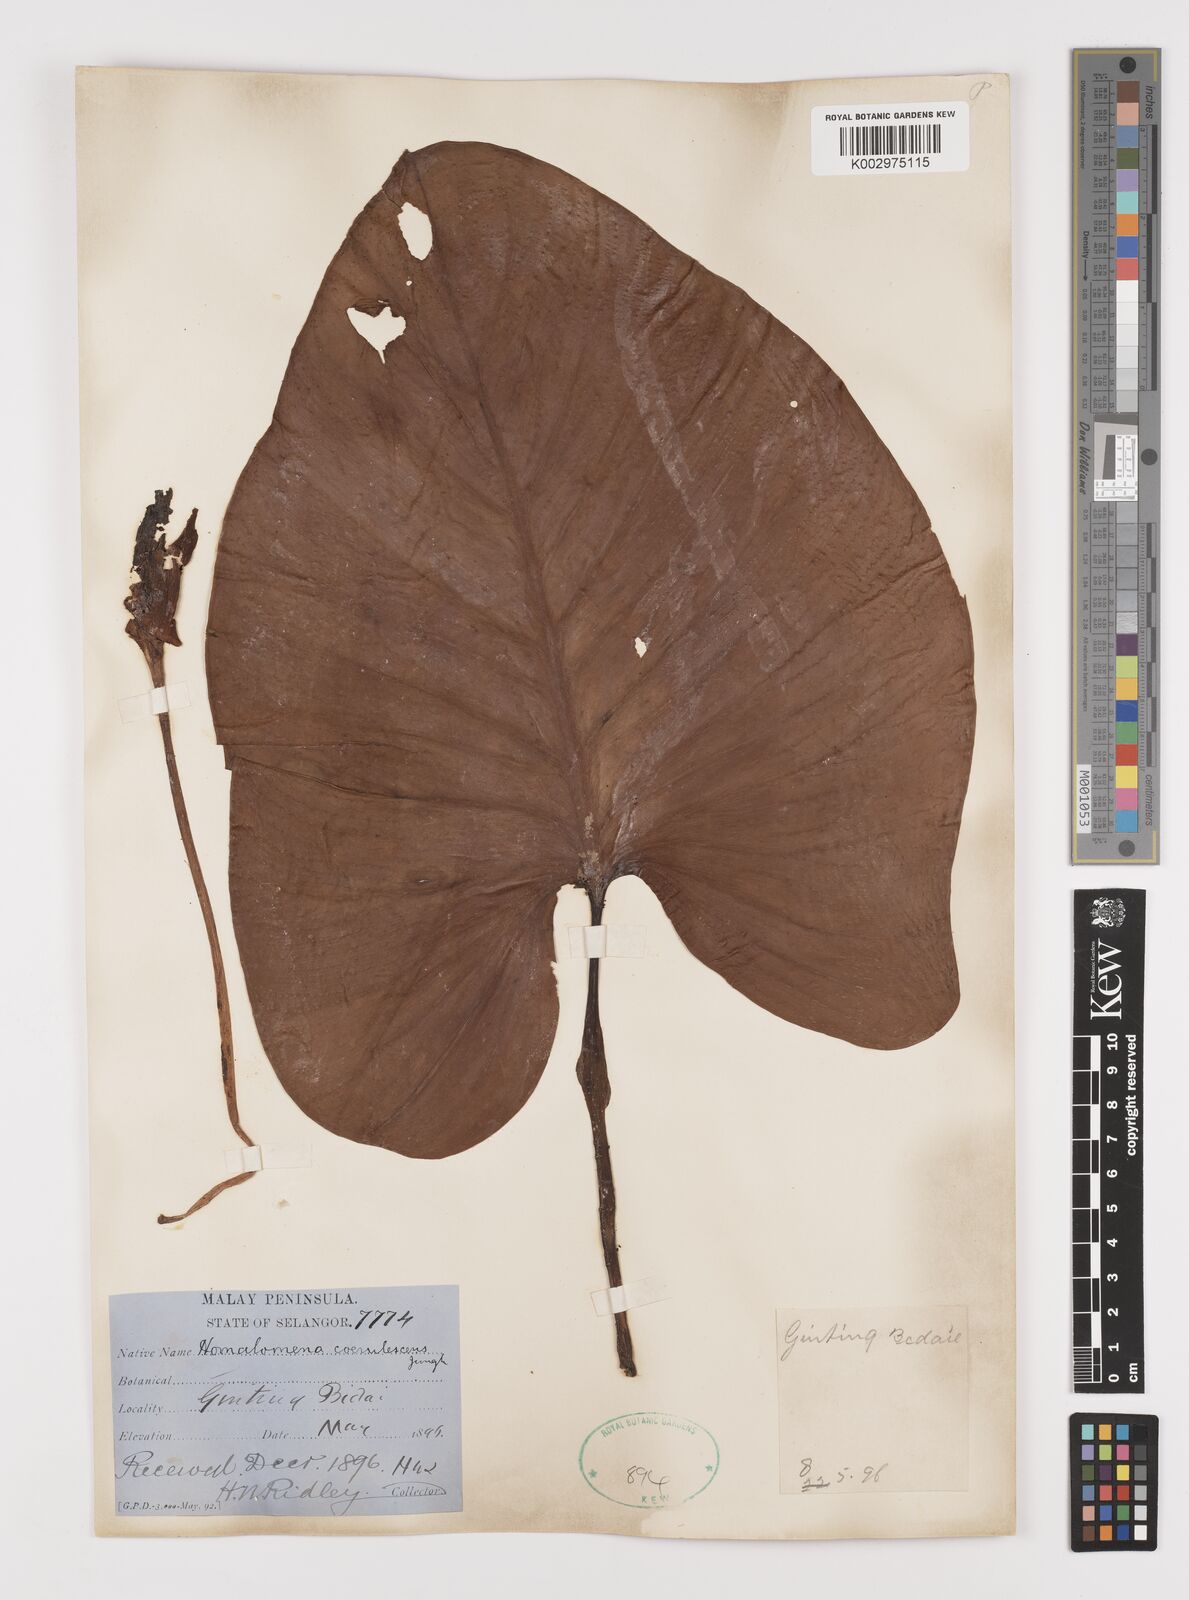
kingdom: Plantae
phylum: Tracheophyta
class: Liliopsida
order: Alismatales
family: Araceae
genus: Homalomena
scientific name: Homalomena pendula
